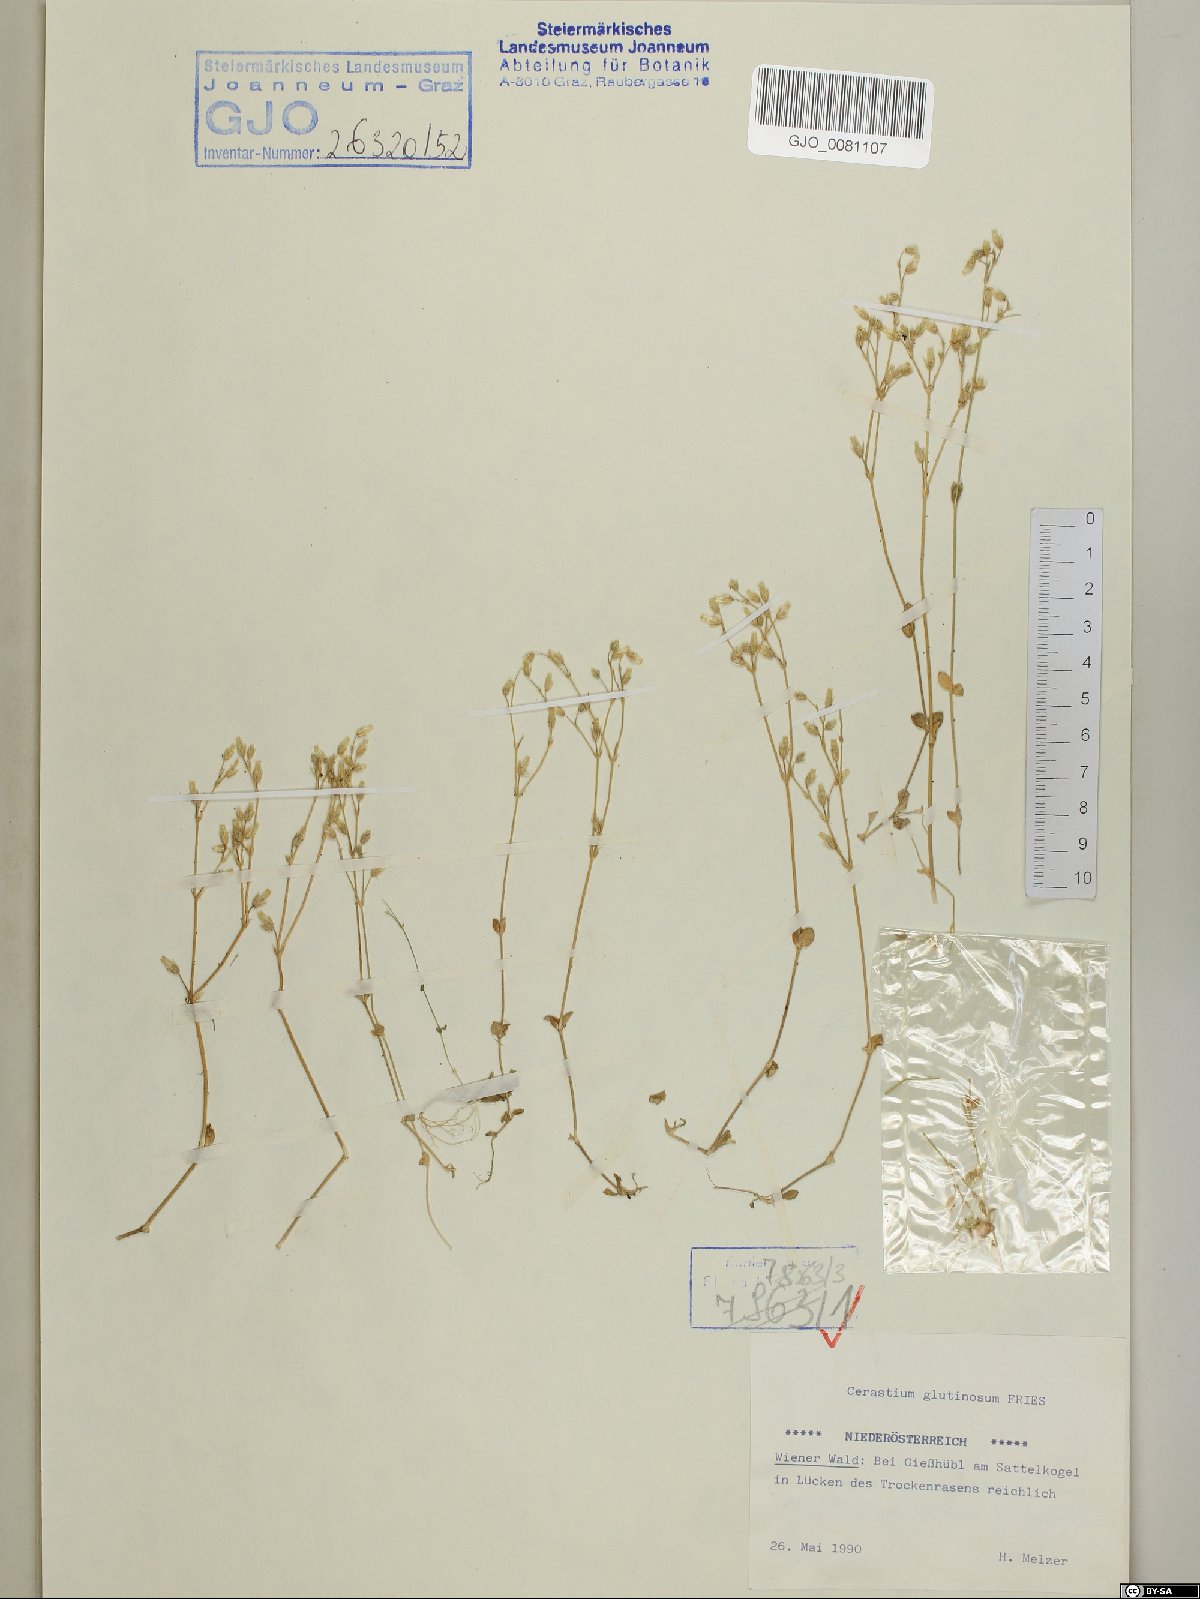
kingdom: Plantae
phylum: Tracheophyta
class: Magnoliopsida
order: Caryophyllales
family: Caryophyllaceae
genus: Cerastium
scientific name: Cerastium glutinosum
